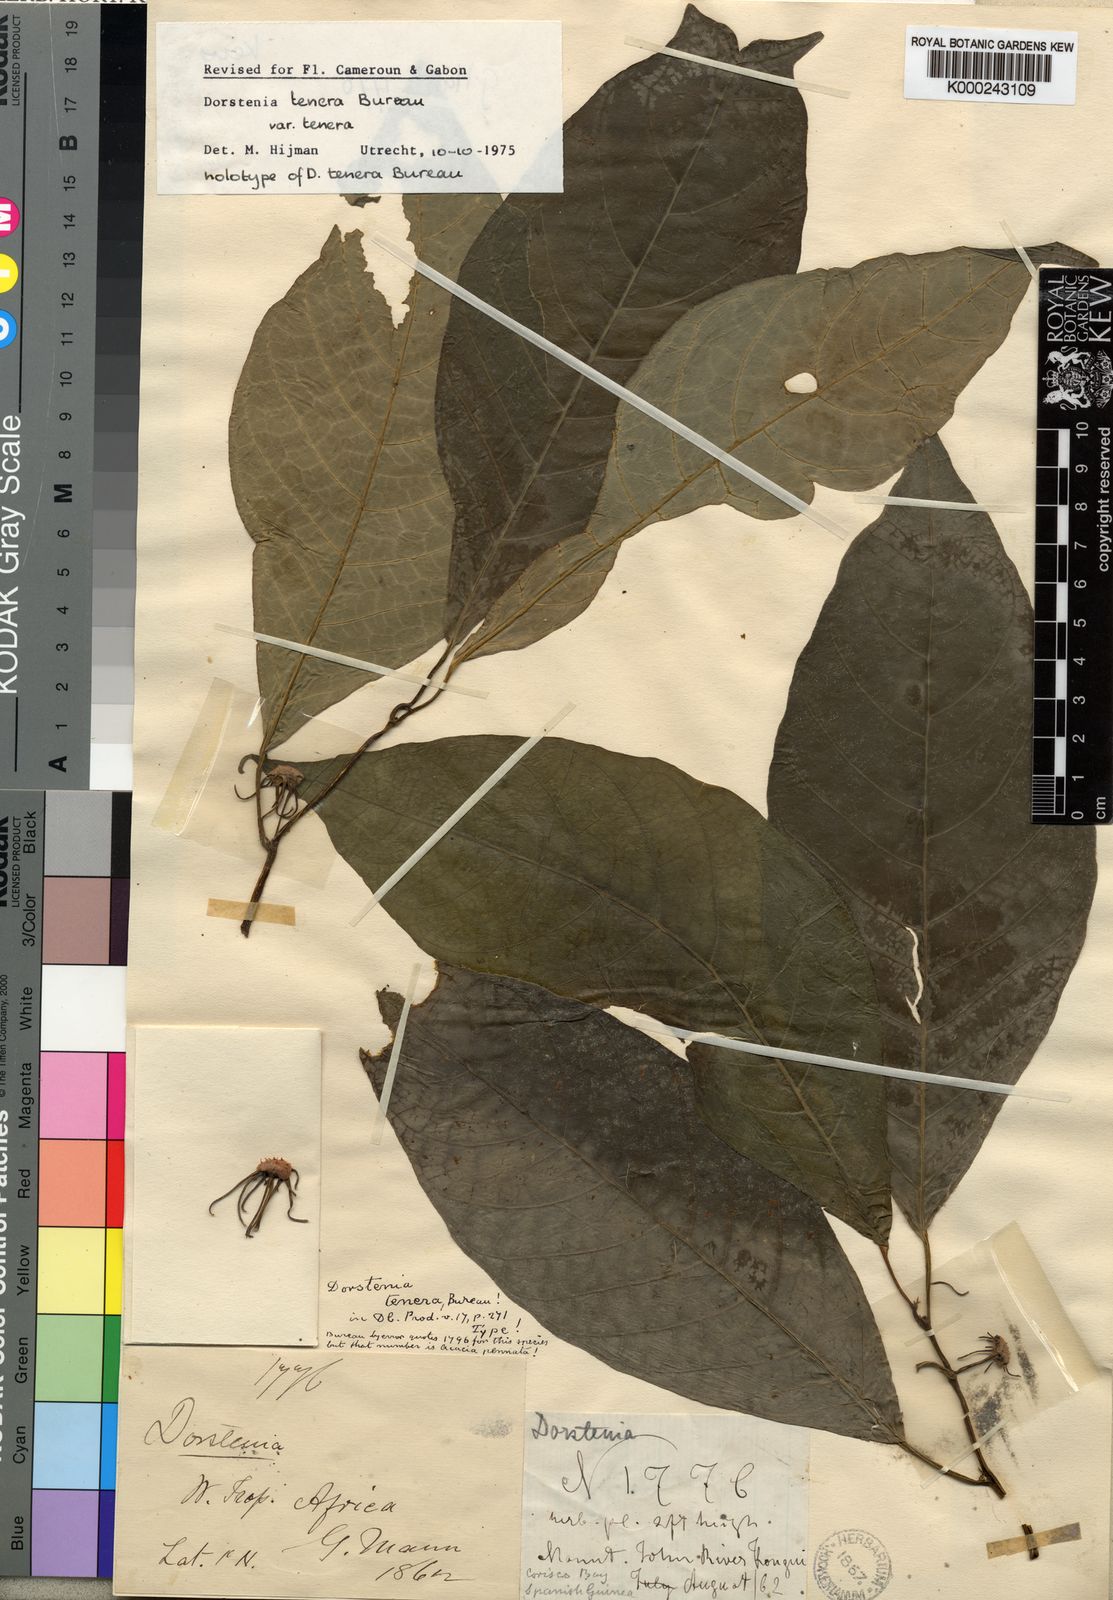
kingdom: Plantae
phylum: Tracheophyta
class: Magnoliopsida
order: Rosales
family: Moraceae
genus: Dorstenia
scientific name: Dorstenia tenera
